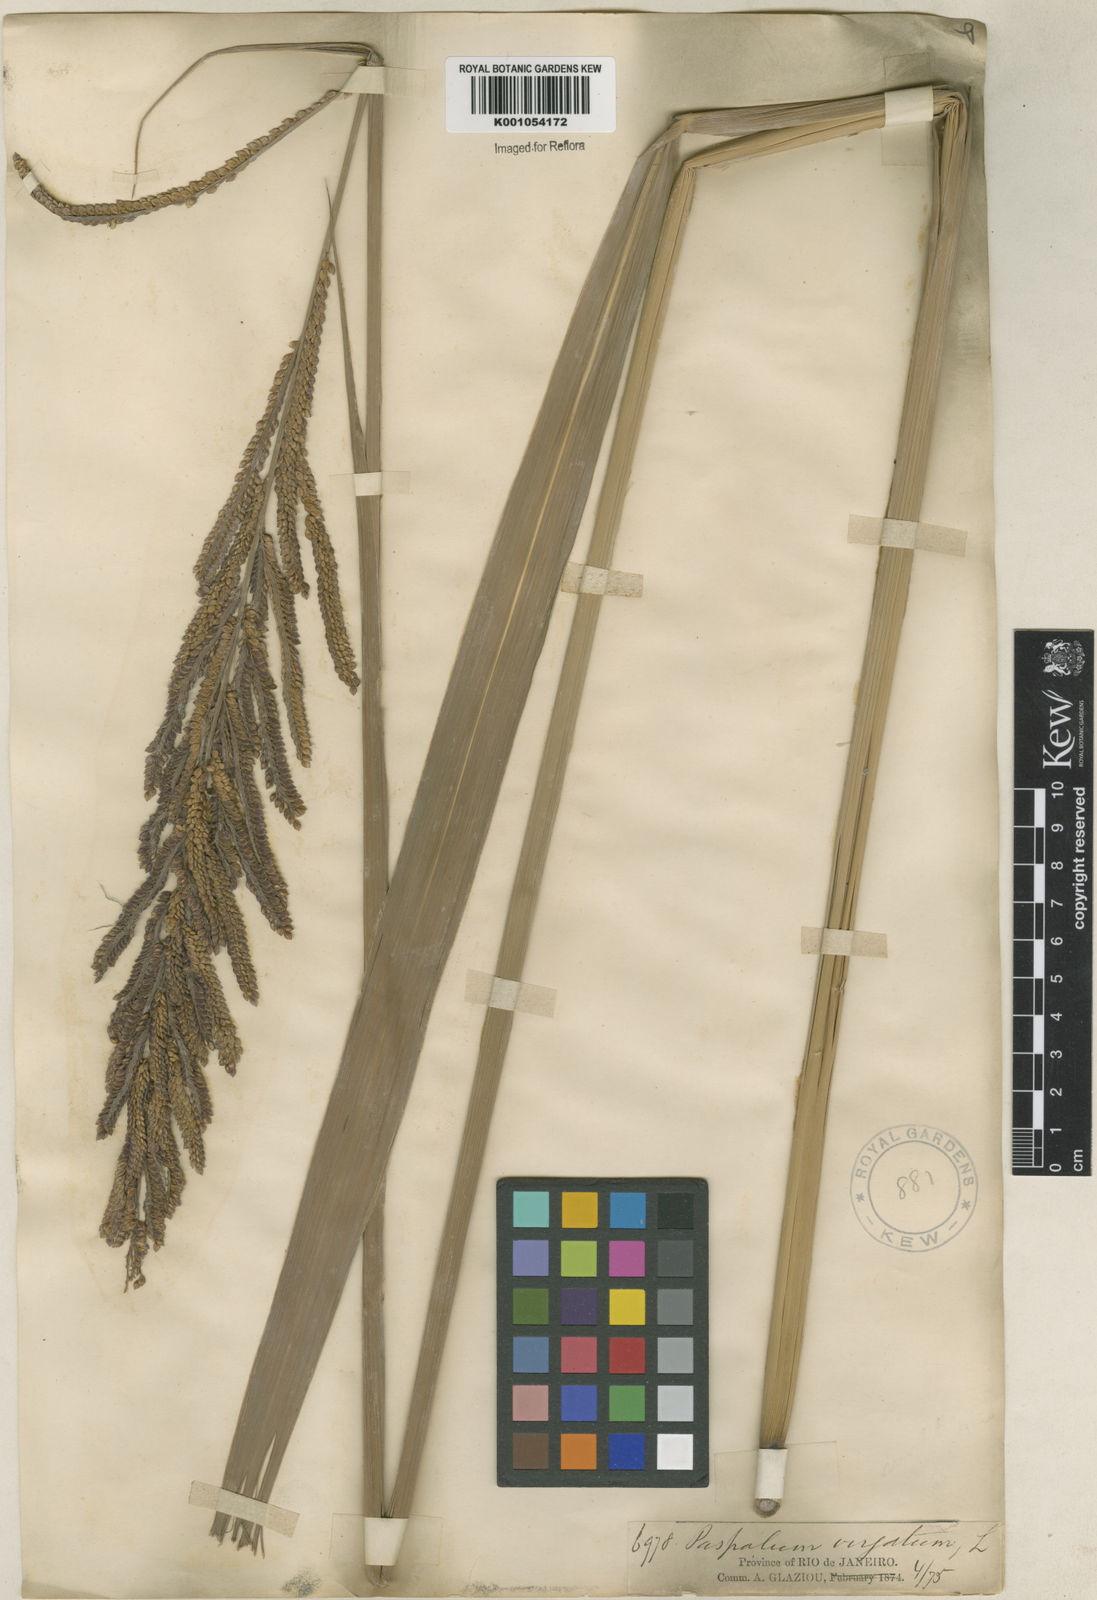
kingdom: Plantae
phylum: Tracheophyta
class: Liliopsida
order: Poales
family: Poaceae
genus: Paspalum
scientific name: Paspalum conspersum
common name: Scattered paspalum
